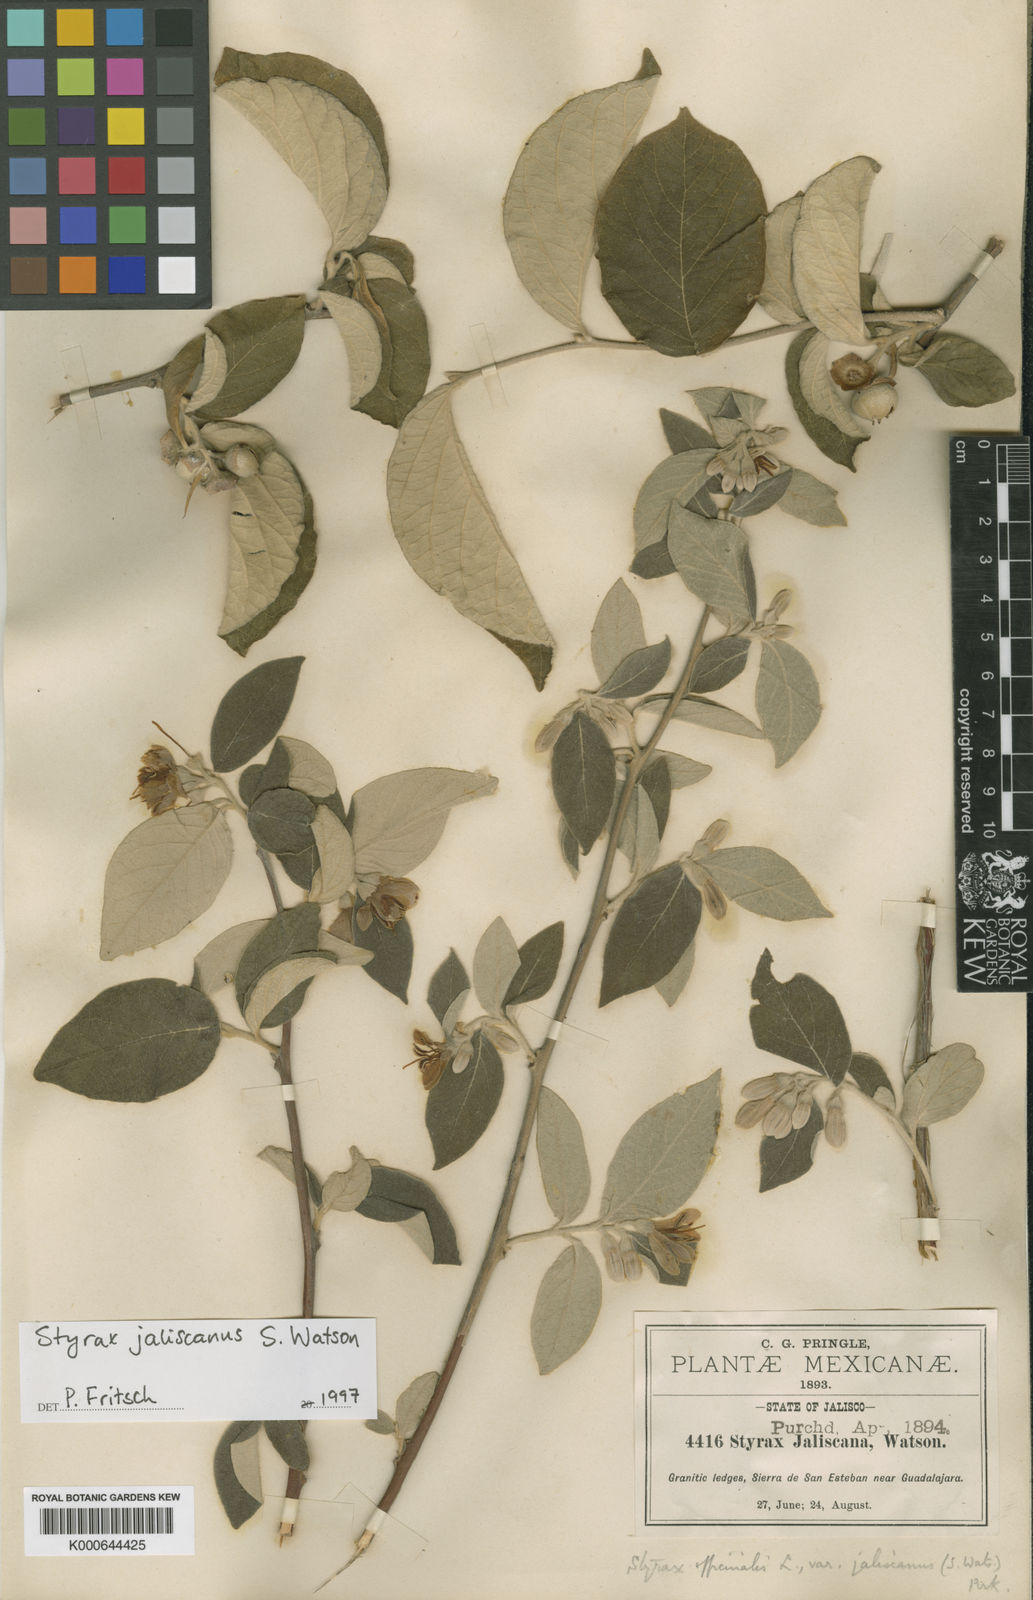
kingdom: Plantae
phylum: Tracheophyta
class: Magnoliopsida
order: Ericales
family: Styracaceae
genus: Styrax
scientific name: Styrax
